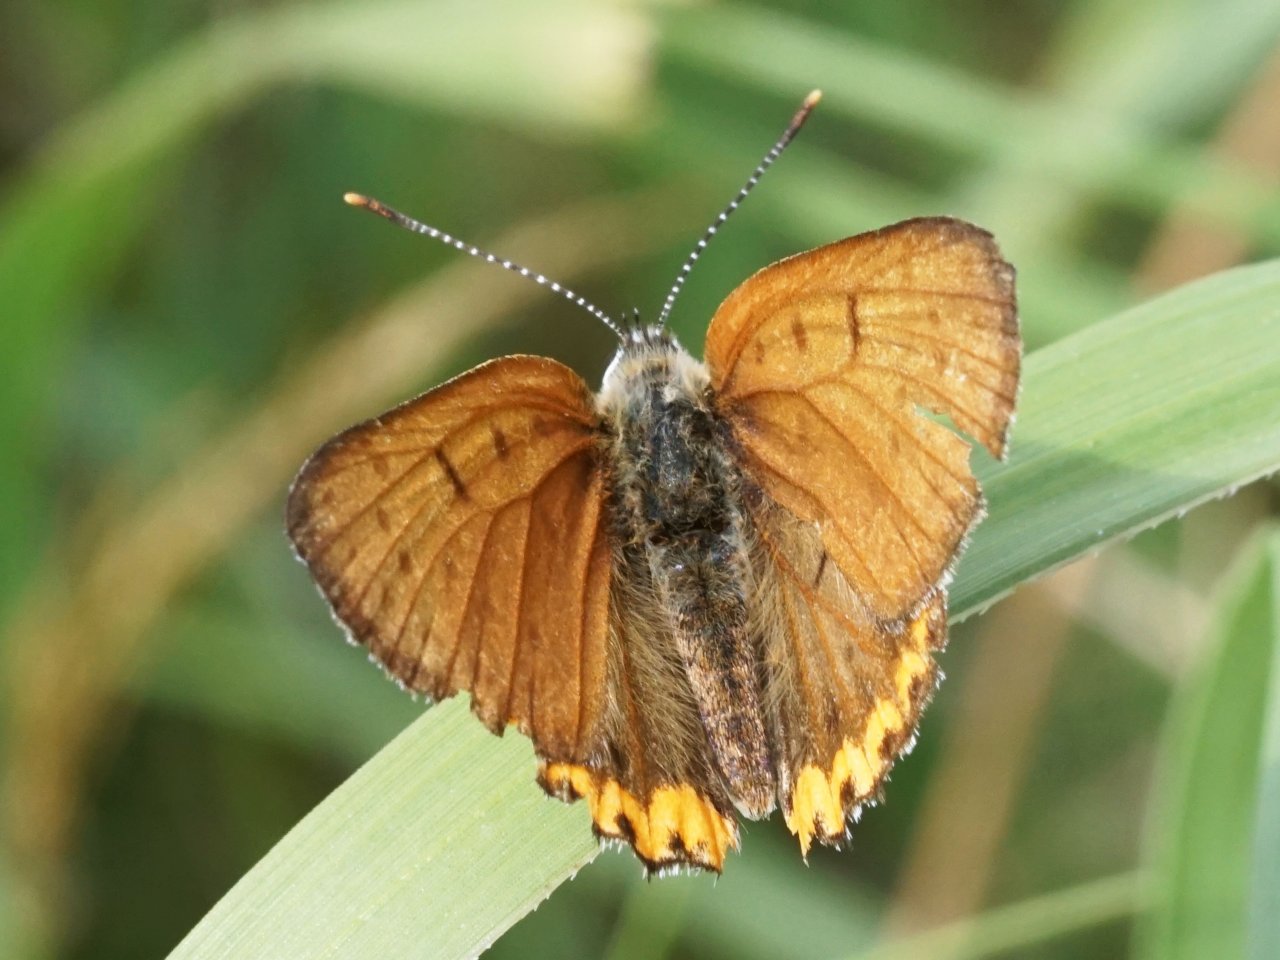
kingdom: Animalia
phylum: Arthropoda
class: Insecta
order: Lepidoptera
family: Sesiidae
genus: Sesia
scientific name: Sesia Lycaena hyllus
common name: Bronze Copper
